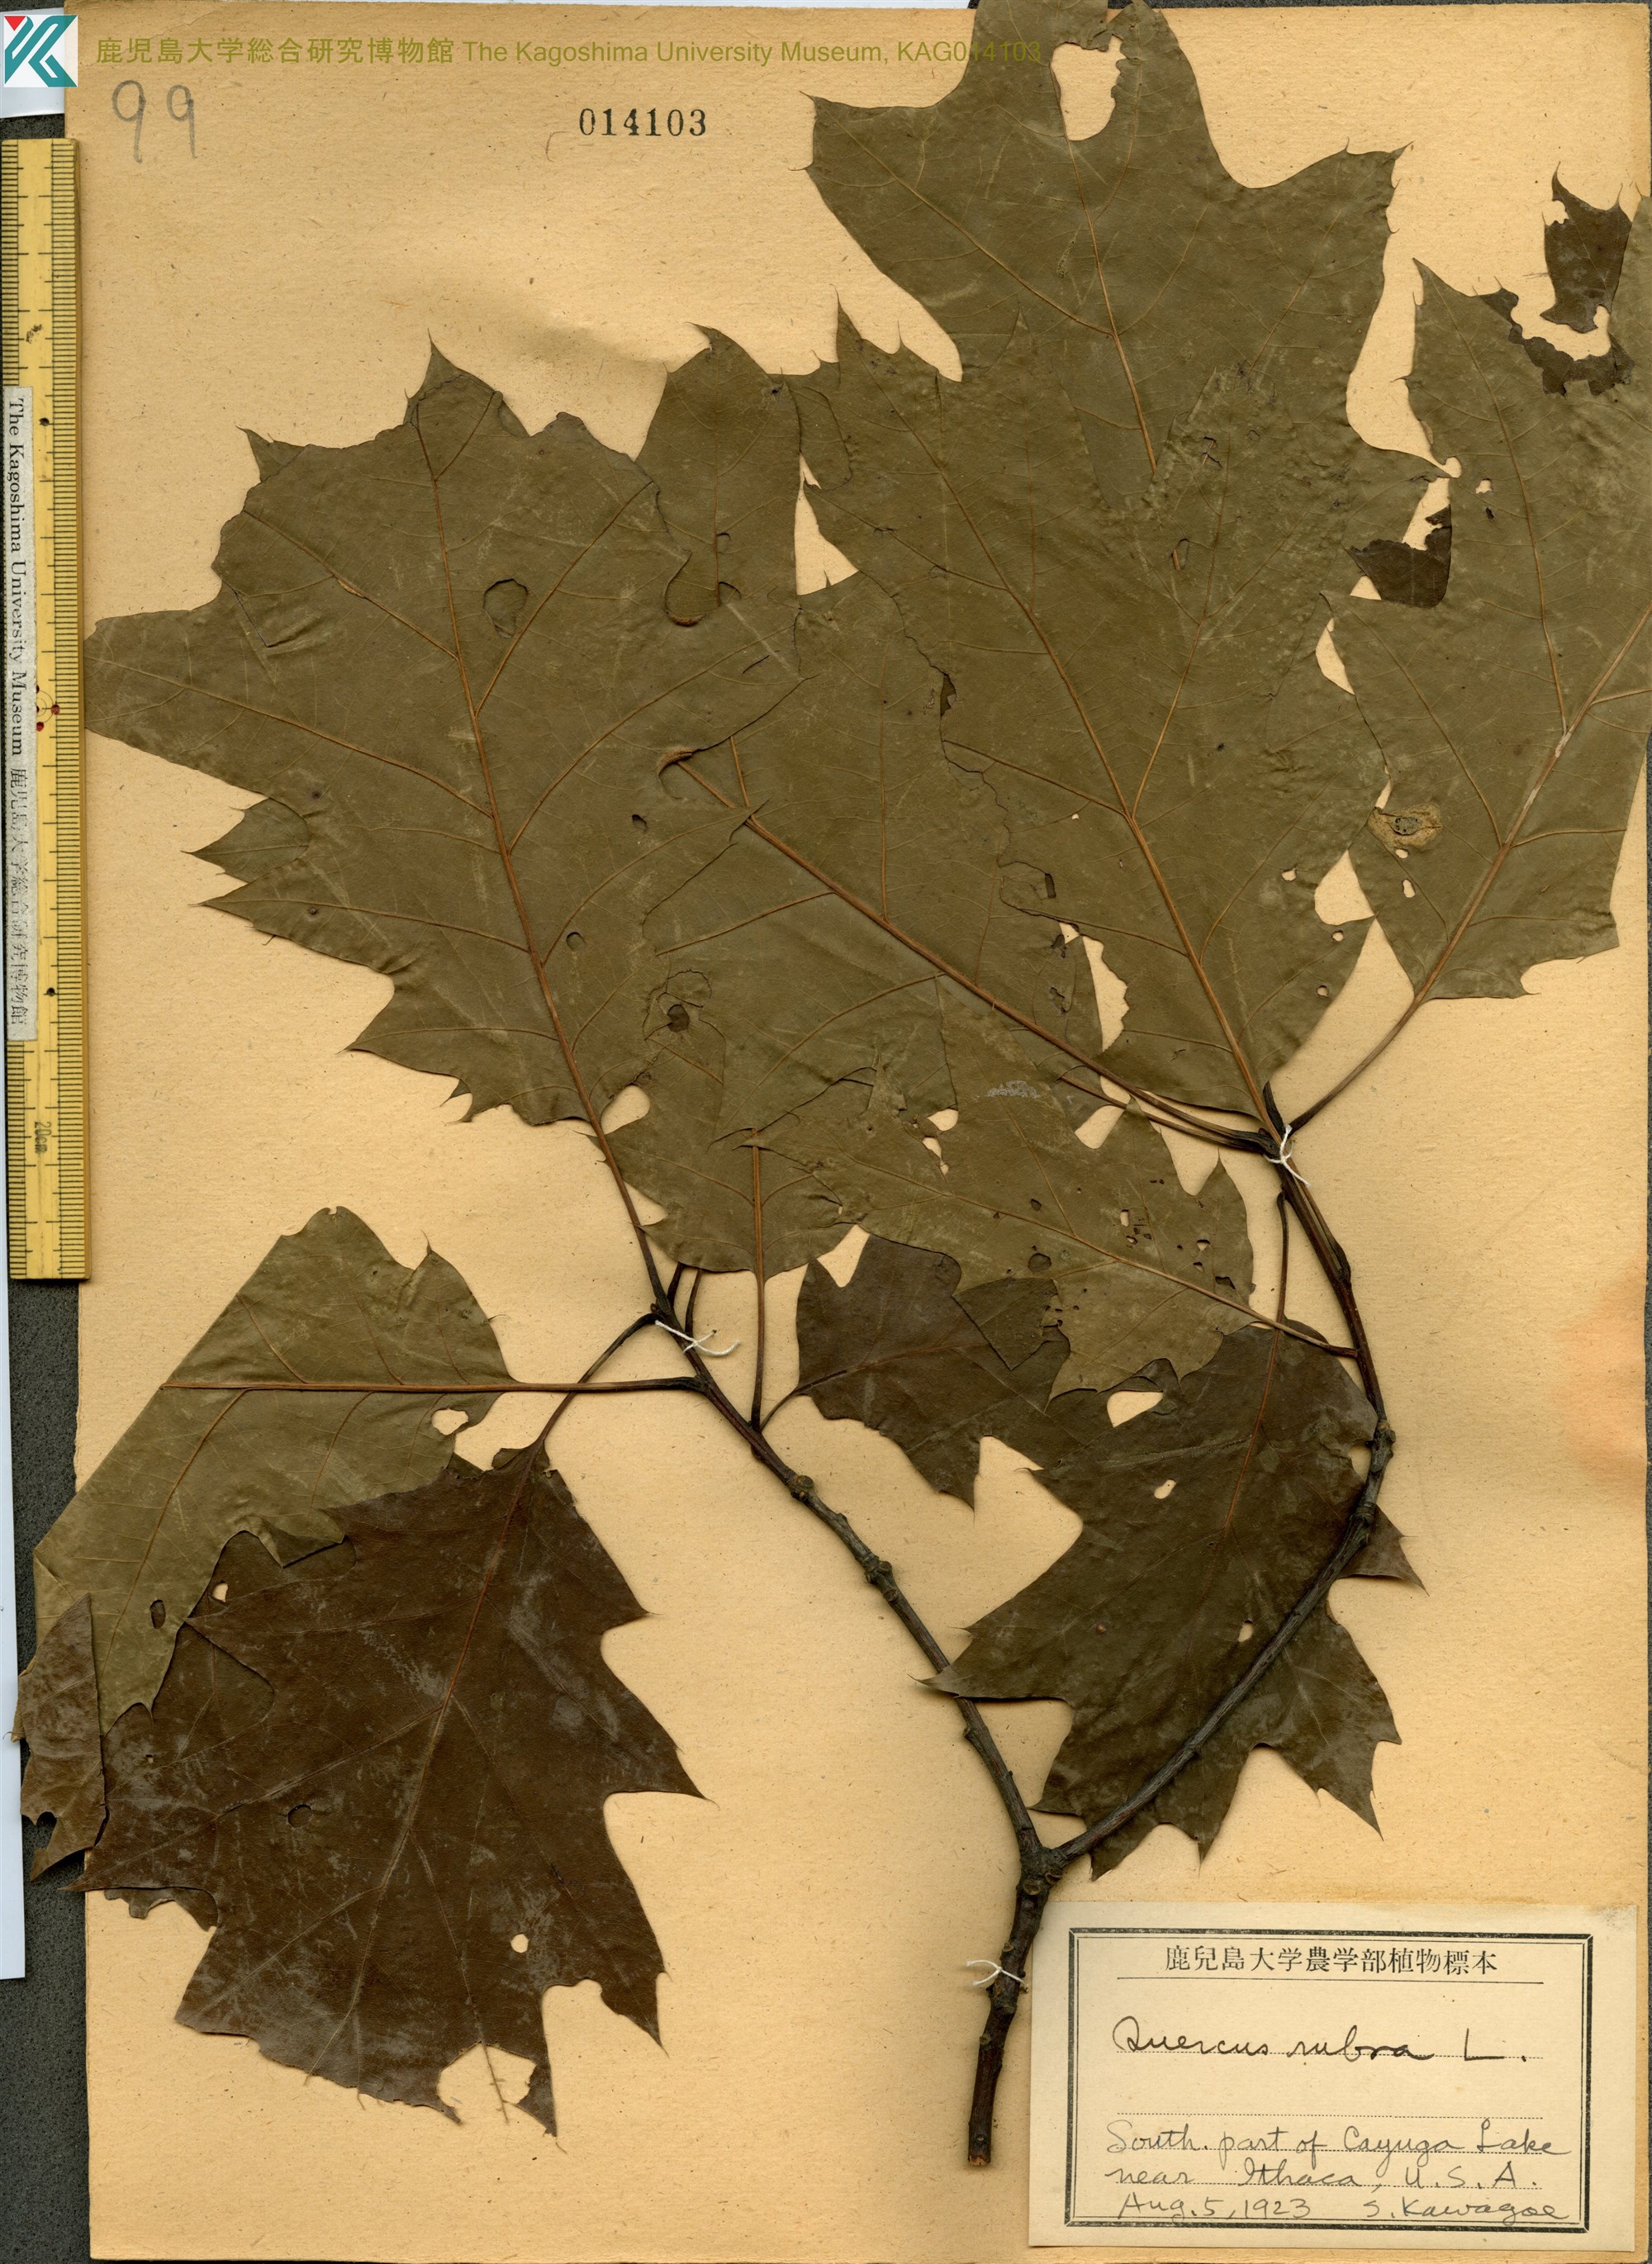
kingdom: Plantae
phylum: Tracheophyta
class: Magnoliopsida
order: Fagales
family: Fagaceae
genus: Quercus
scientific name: Quercus palustris
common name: Pin oak
